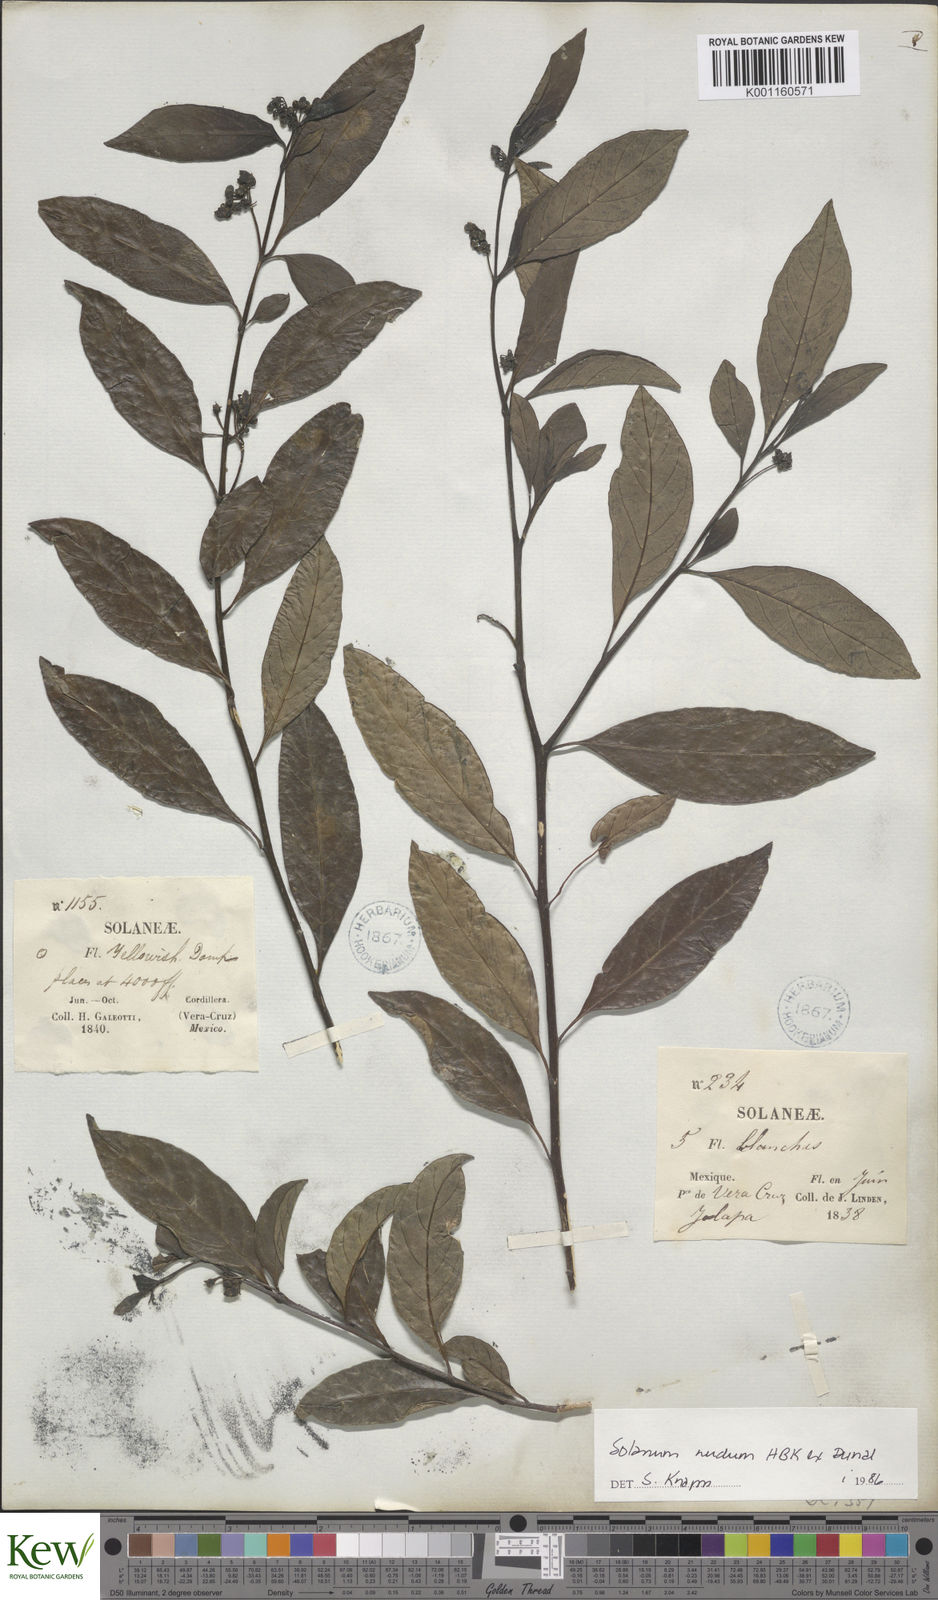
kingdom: Plantae
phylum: Tracheophyta
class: Magnoliopsida
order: Solanales
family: Solanaceae
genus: Solanum
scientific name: Solanum nudum
